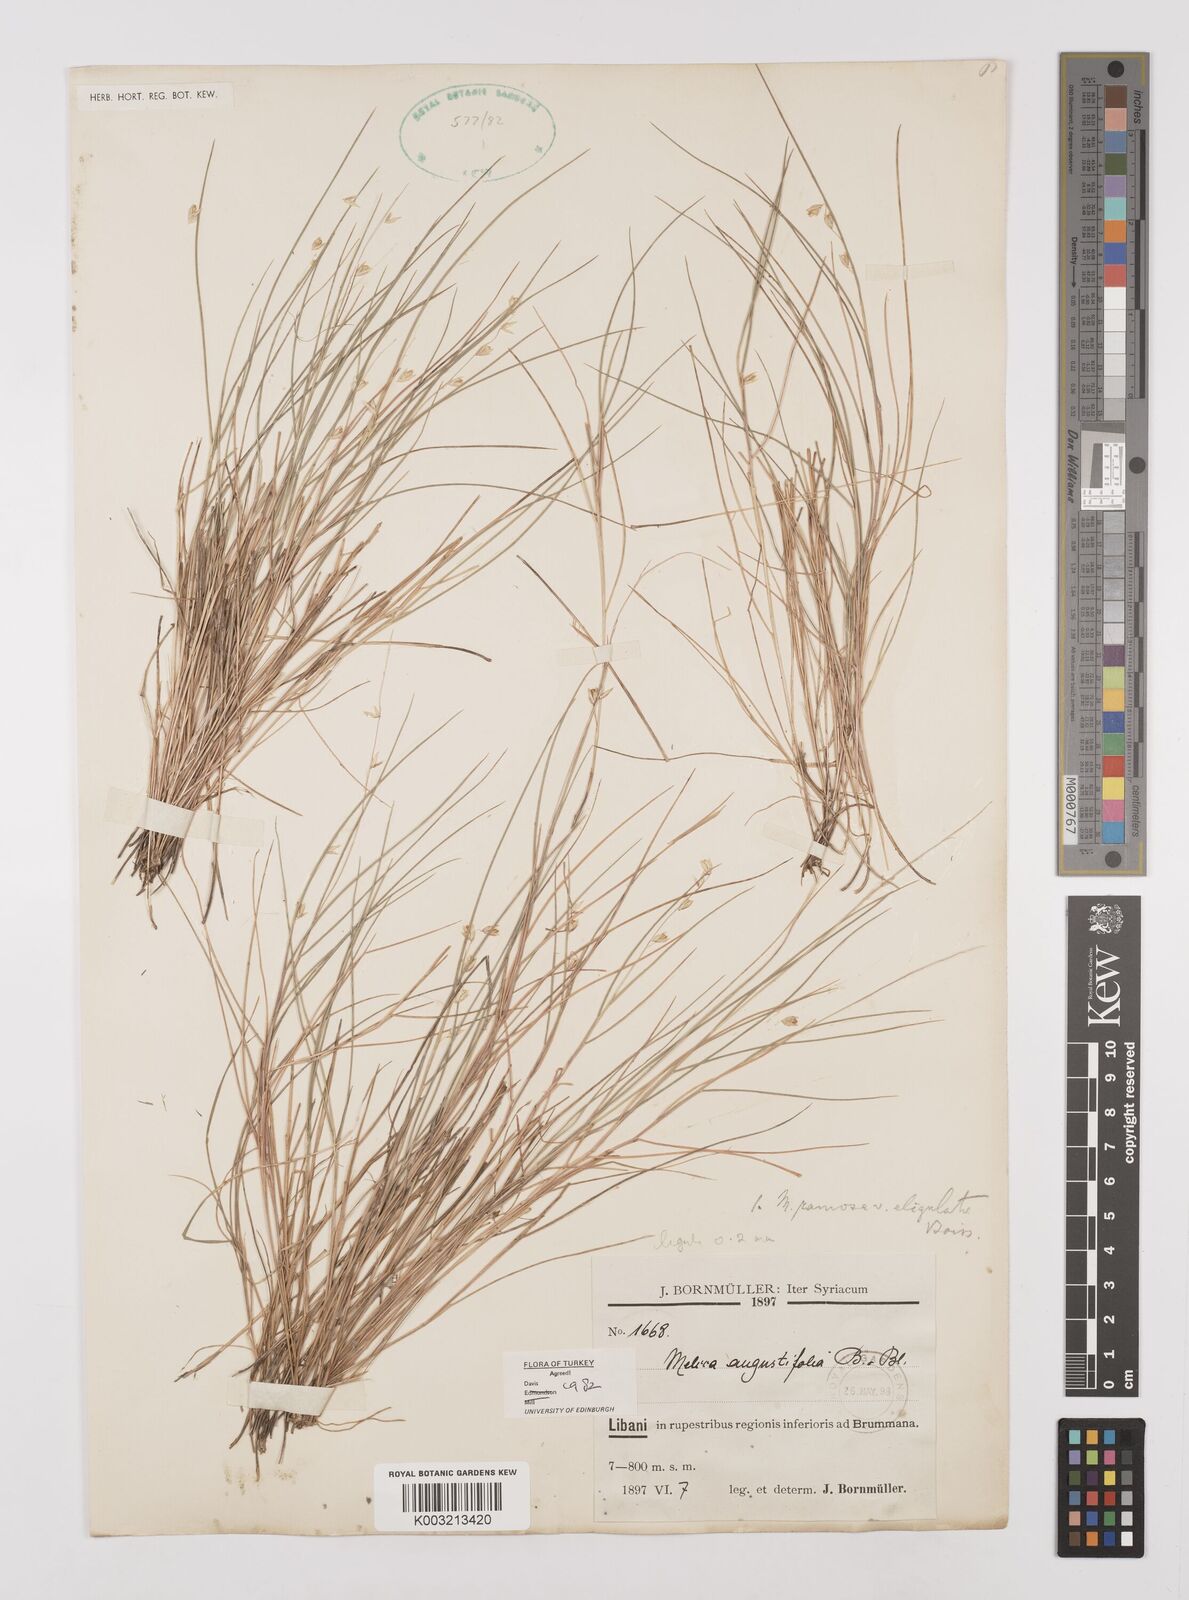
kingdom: Plantae
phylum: Tracheophyta
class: Liliopsida
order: Poales
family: Poaceae
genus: Melica
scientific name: Melica eligulata
